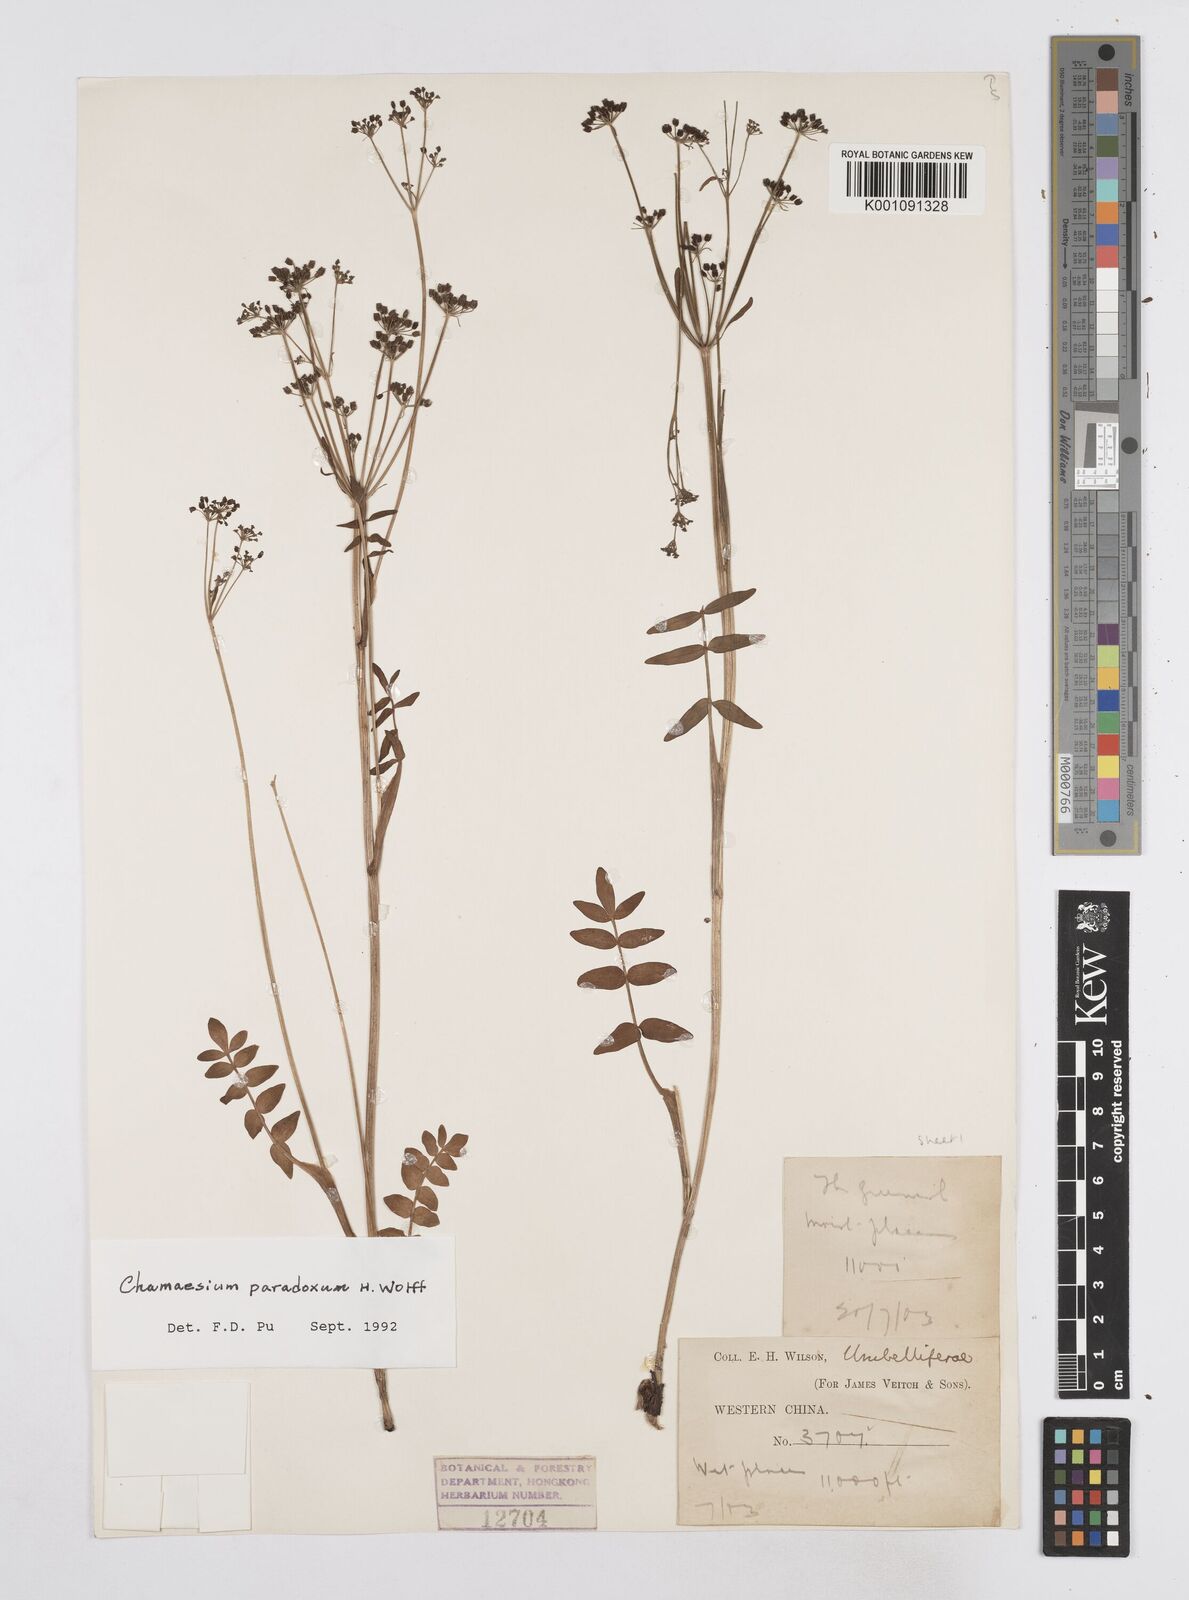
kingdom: Plantae
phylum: Tracheophyta
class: Magnoliopsida
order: Apiales
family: Apiaceae
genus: Chamaesium
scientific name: Chamaesium paradoxum
